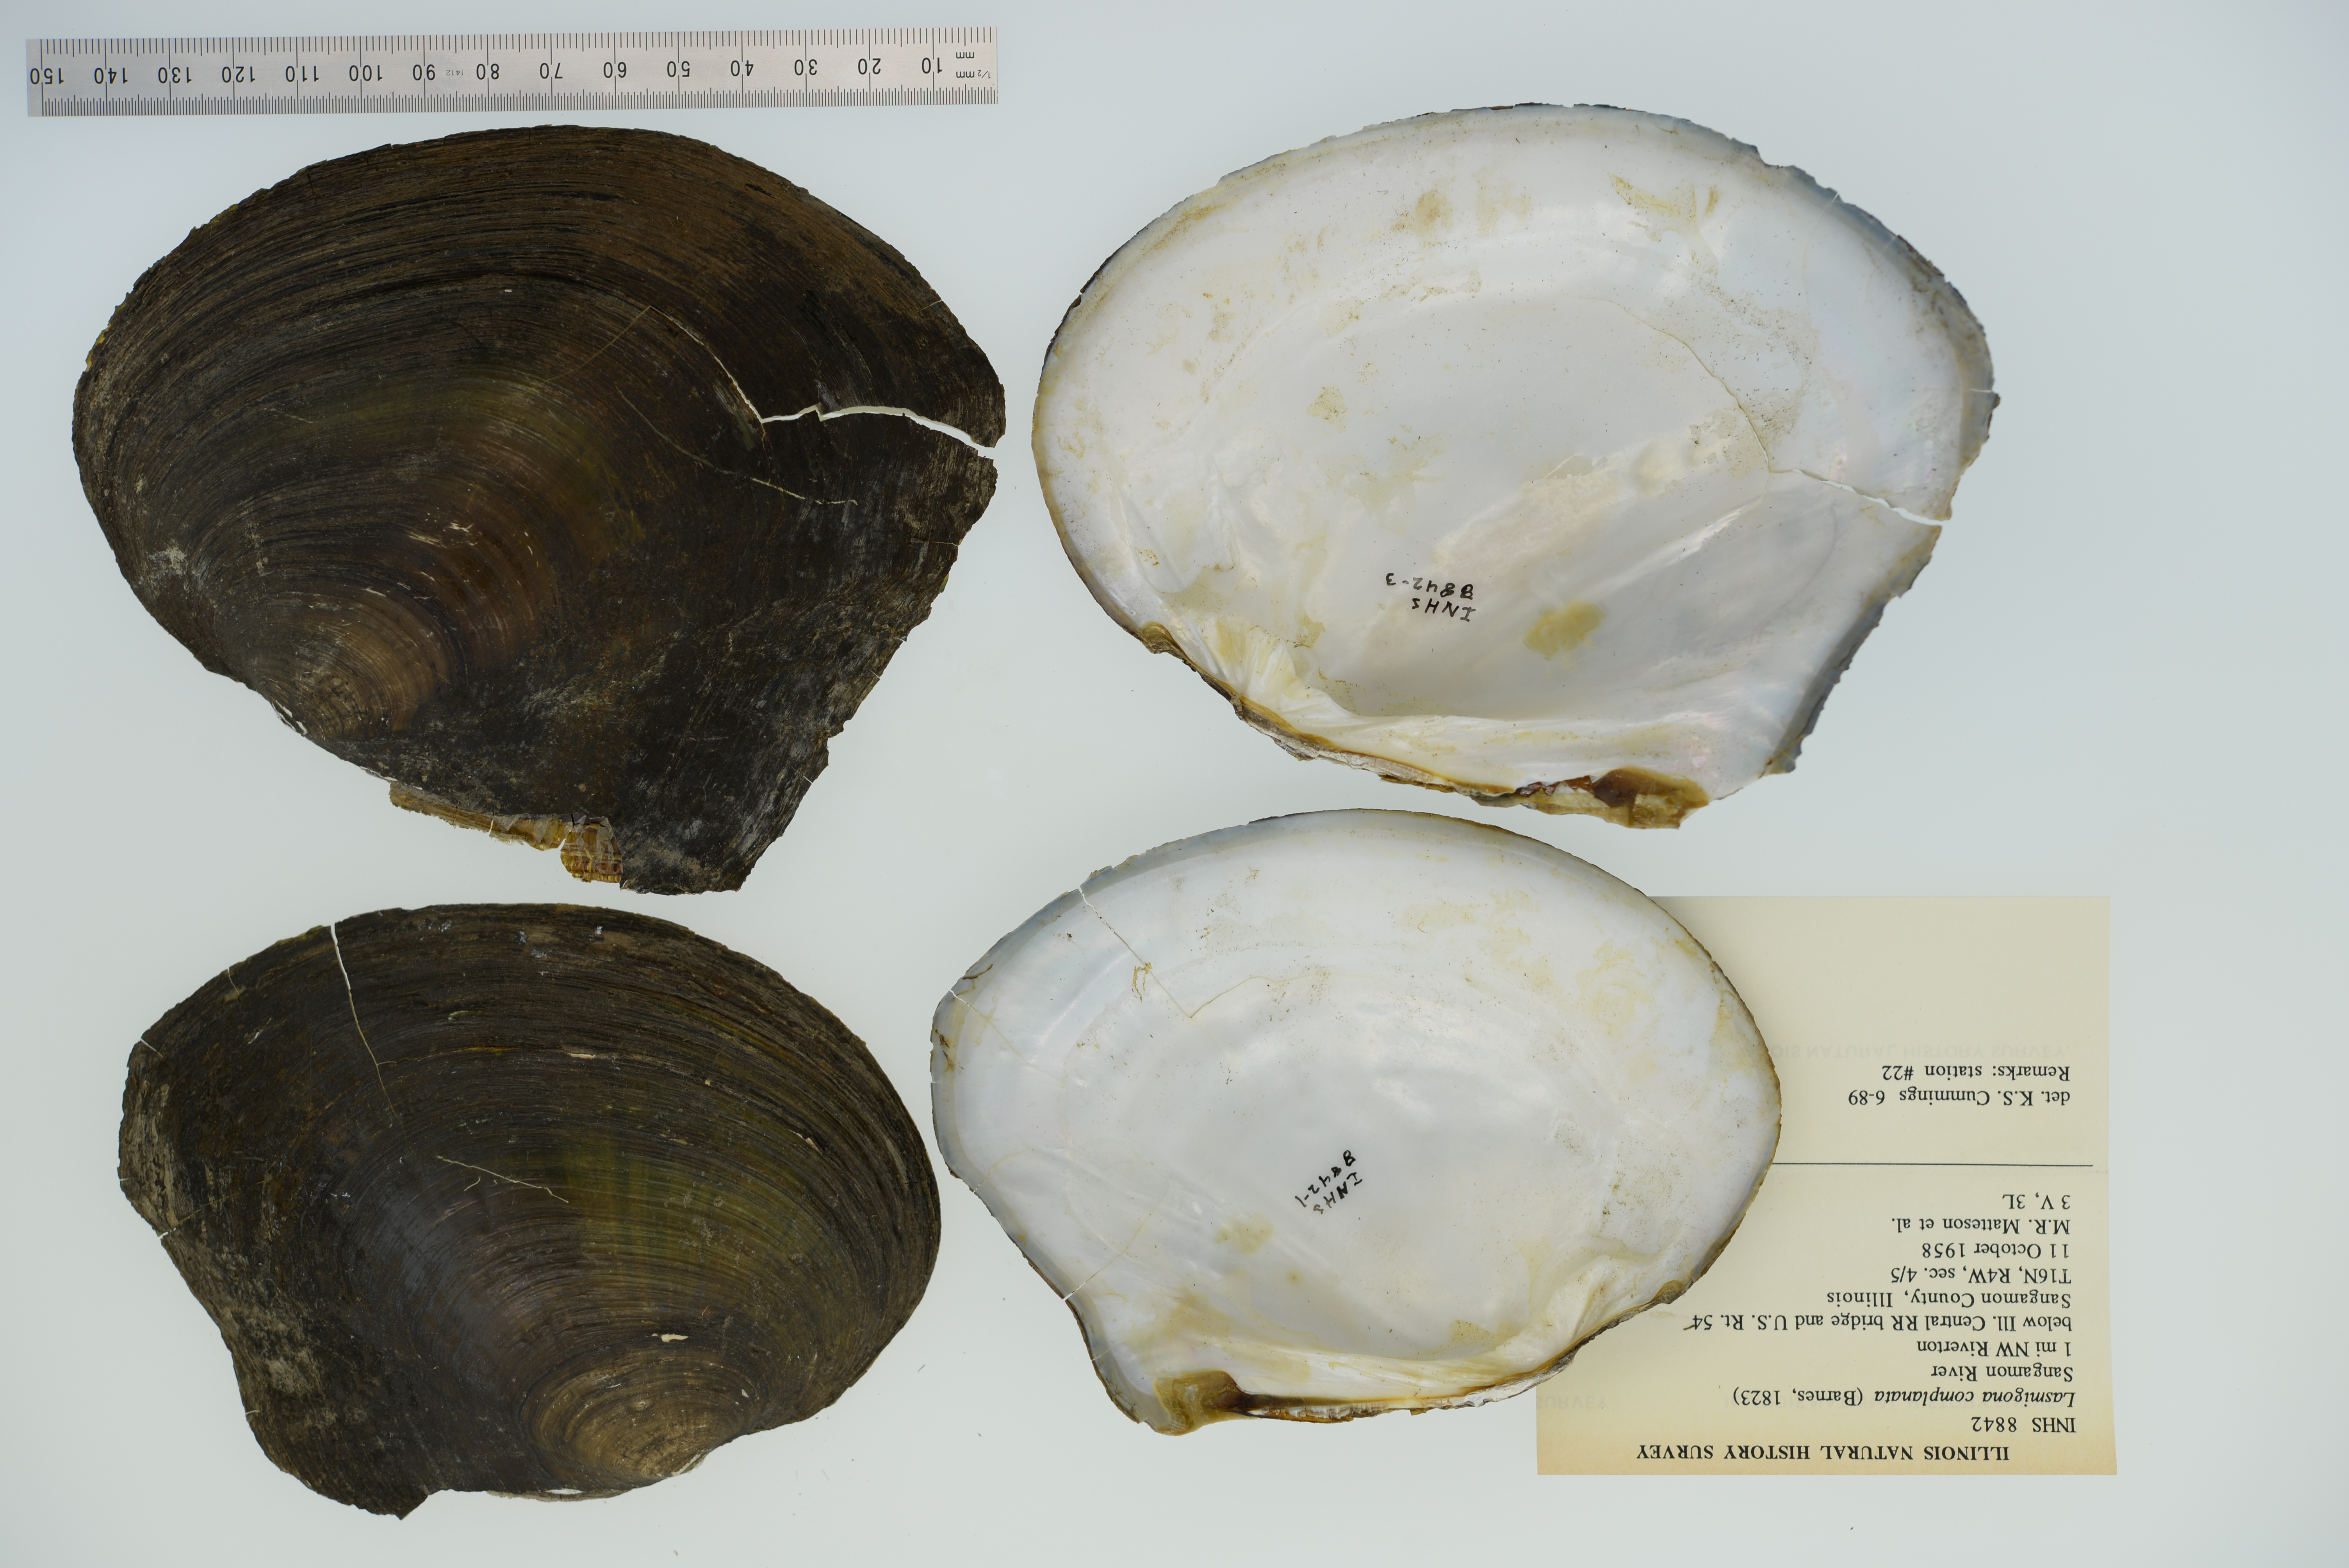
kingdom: Animalia
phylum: Mollusca
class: Bivalvia
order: Unionida
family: Unionidae
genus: Lasmigona
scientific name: Lasmigona complanata
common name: White heelsplitter
